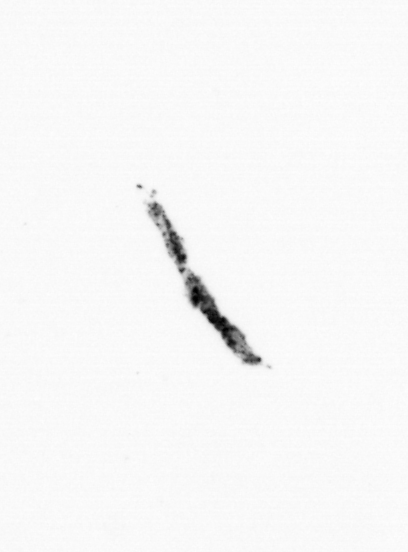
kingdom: Animalia
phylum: Chordata
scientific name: Chordata
